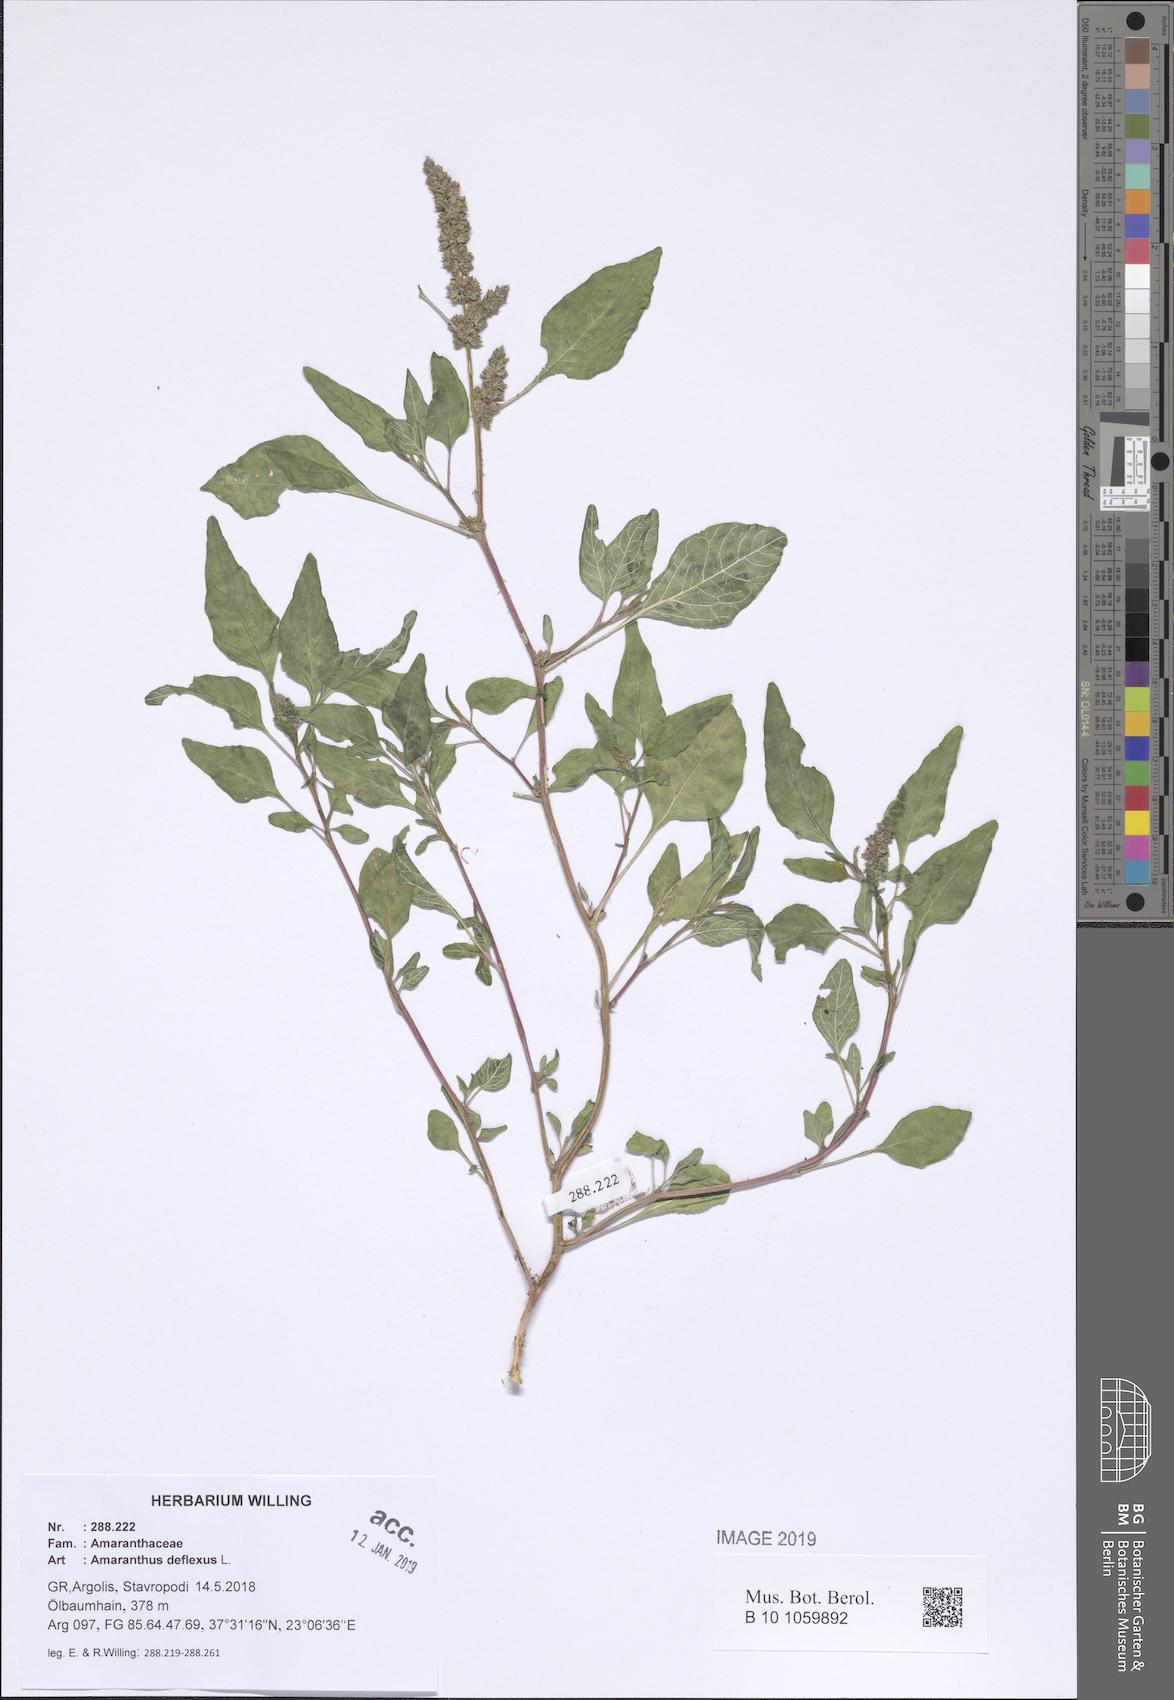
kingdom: Plantae
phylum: Tracheophyta
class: Magnoliopsida
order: Caryophyllales
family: Amaranthaceae
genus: Amaranthus
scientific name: Amaranthus deflexus
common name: Perennial pigweed
